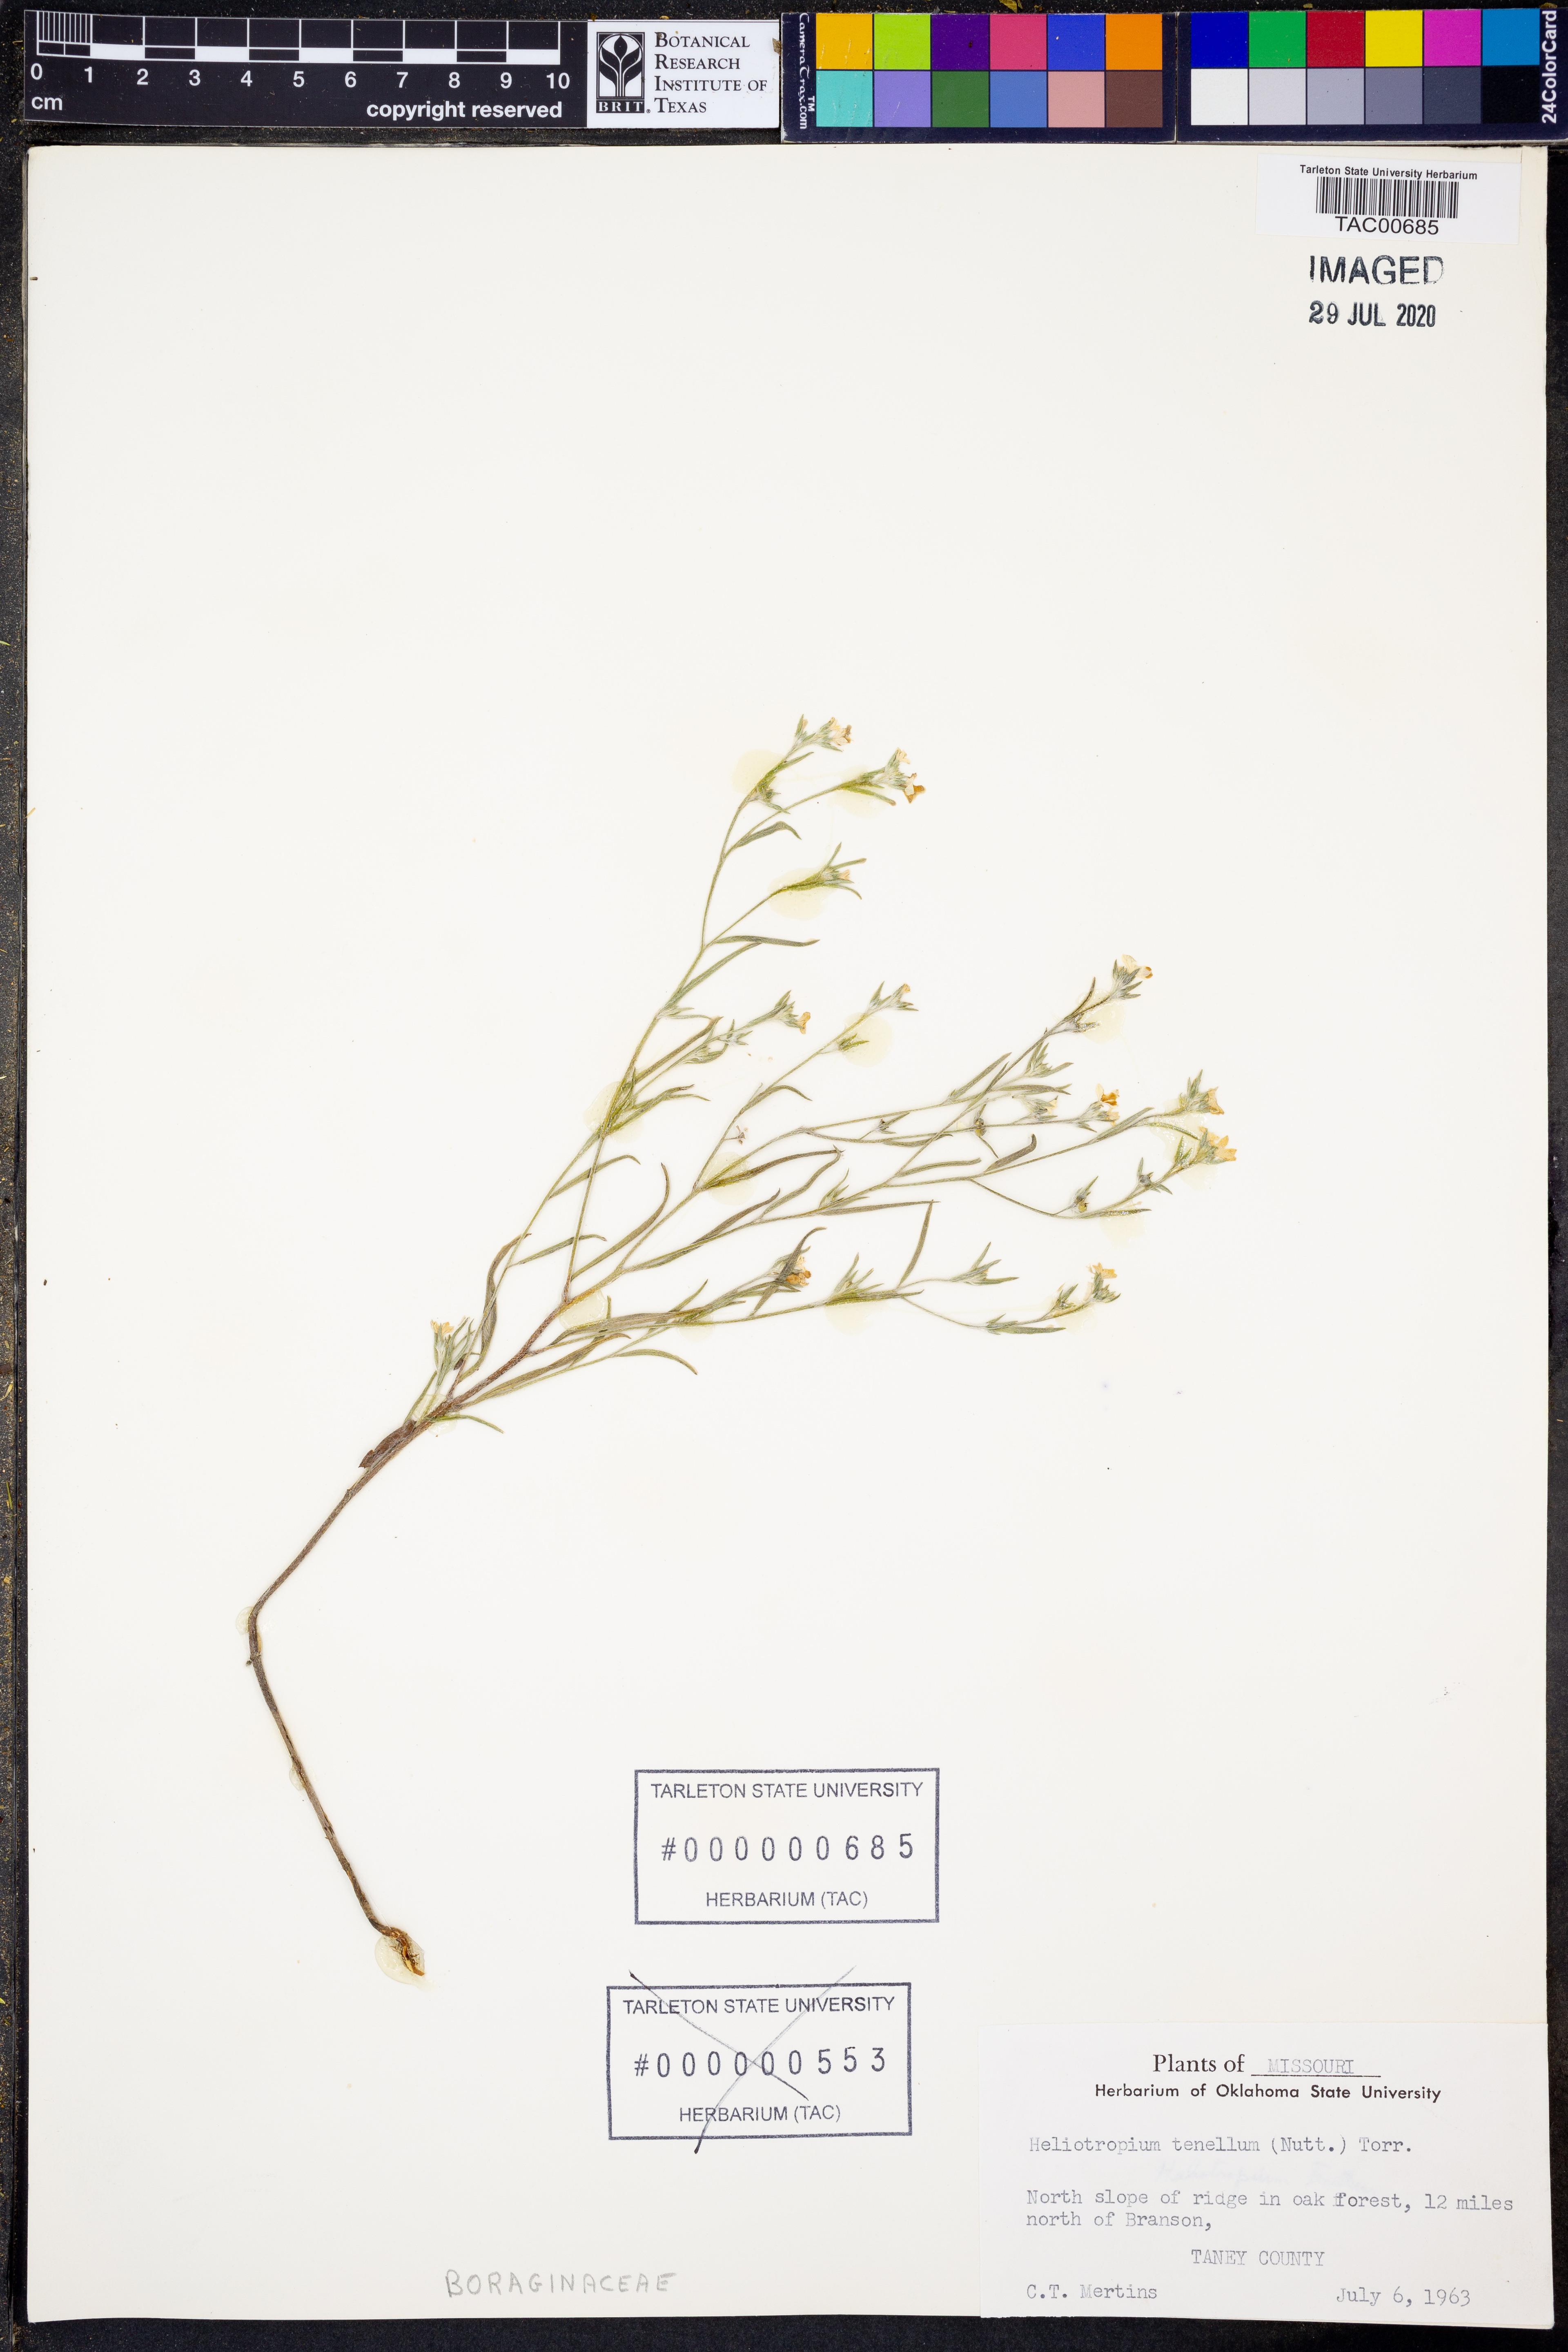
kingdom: Plantae
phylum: Tracheophyta
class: Magnoliopsida
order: Boraginales
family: Heliotropiaceae
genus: Euploca
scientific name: Euploca tenella
